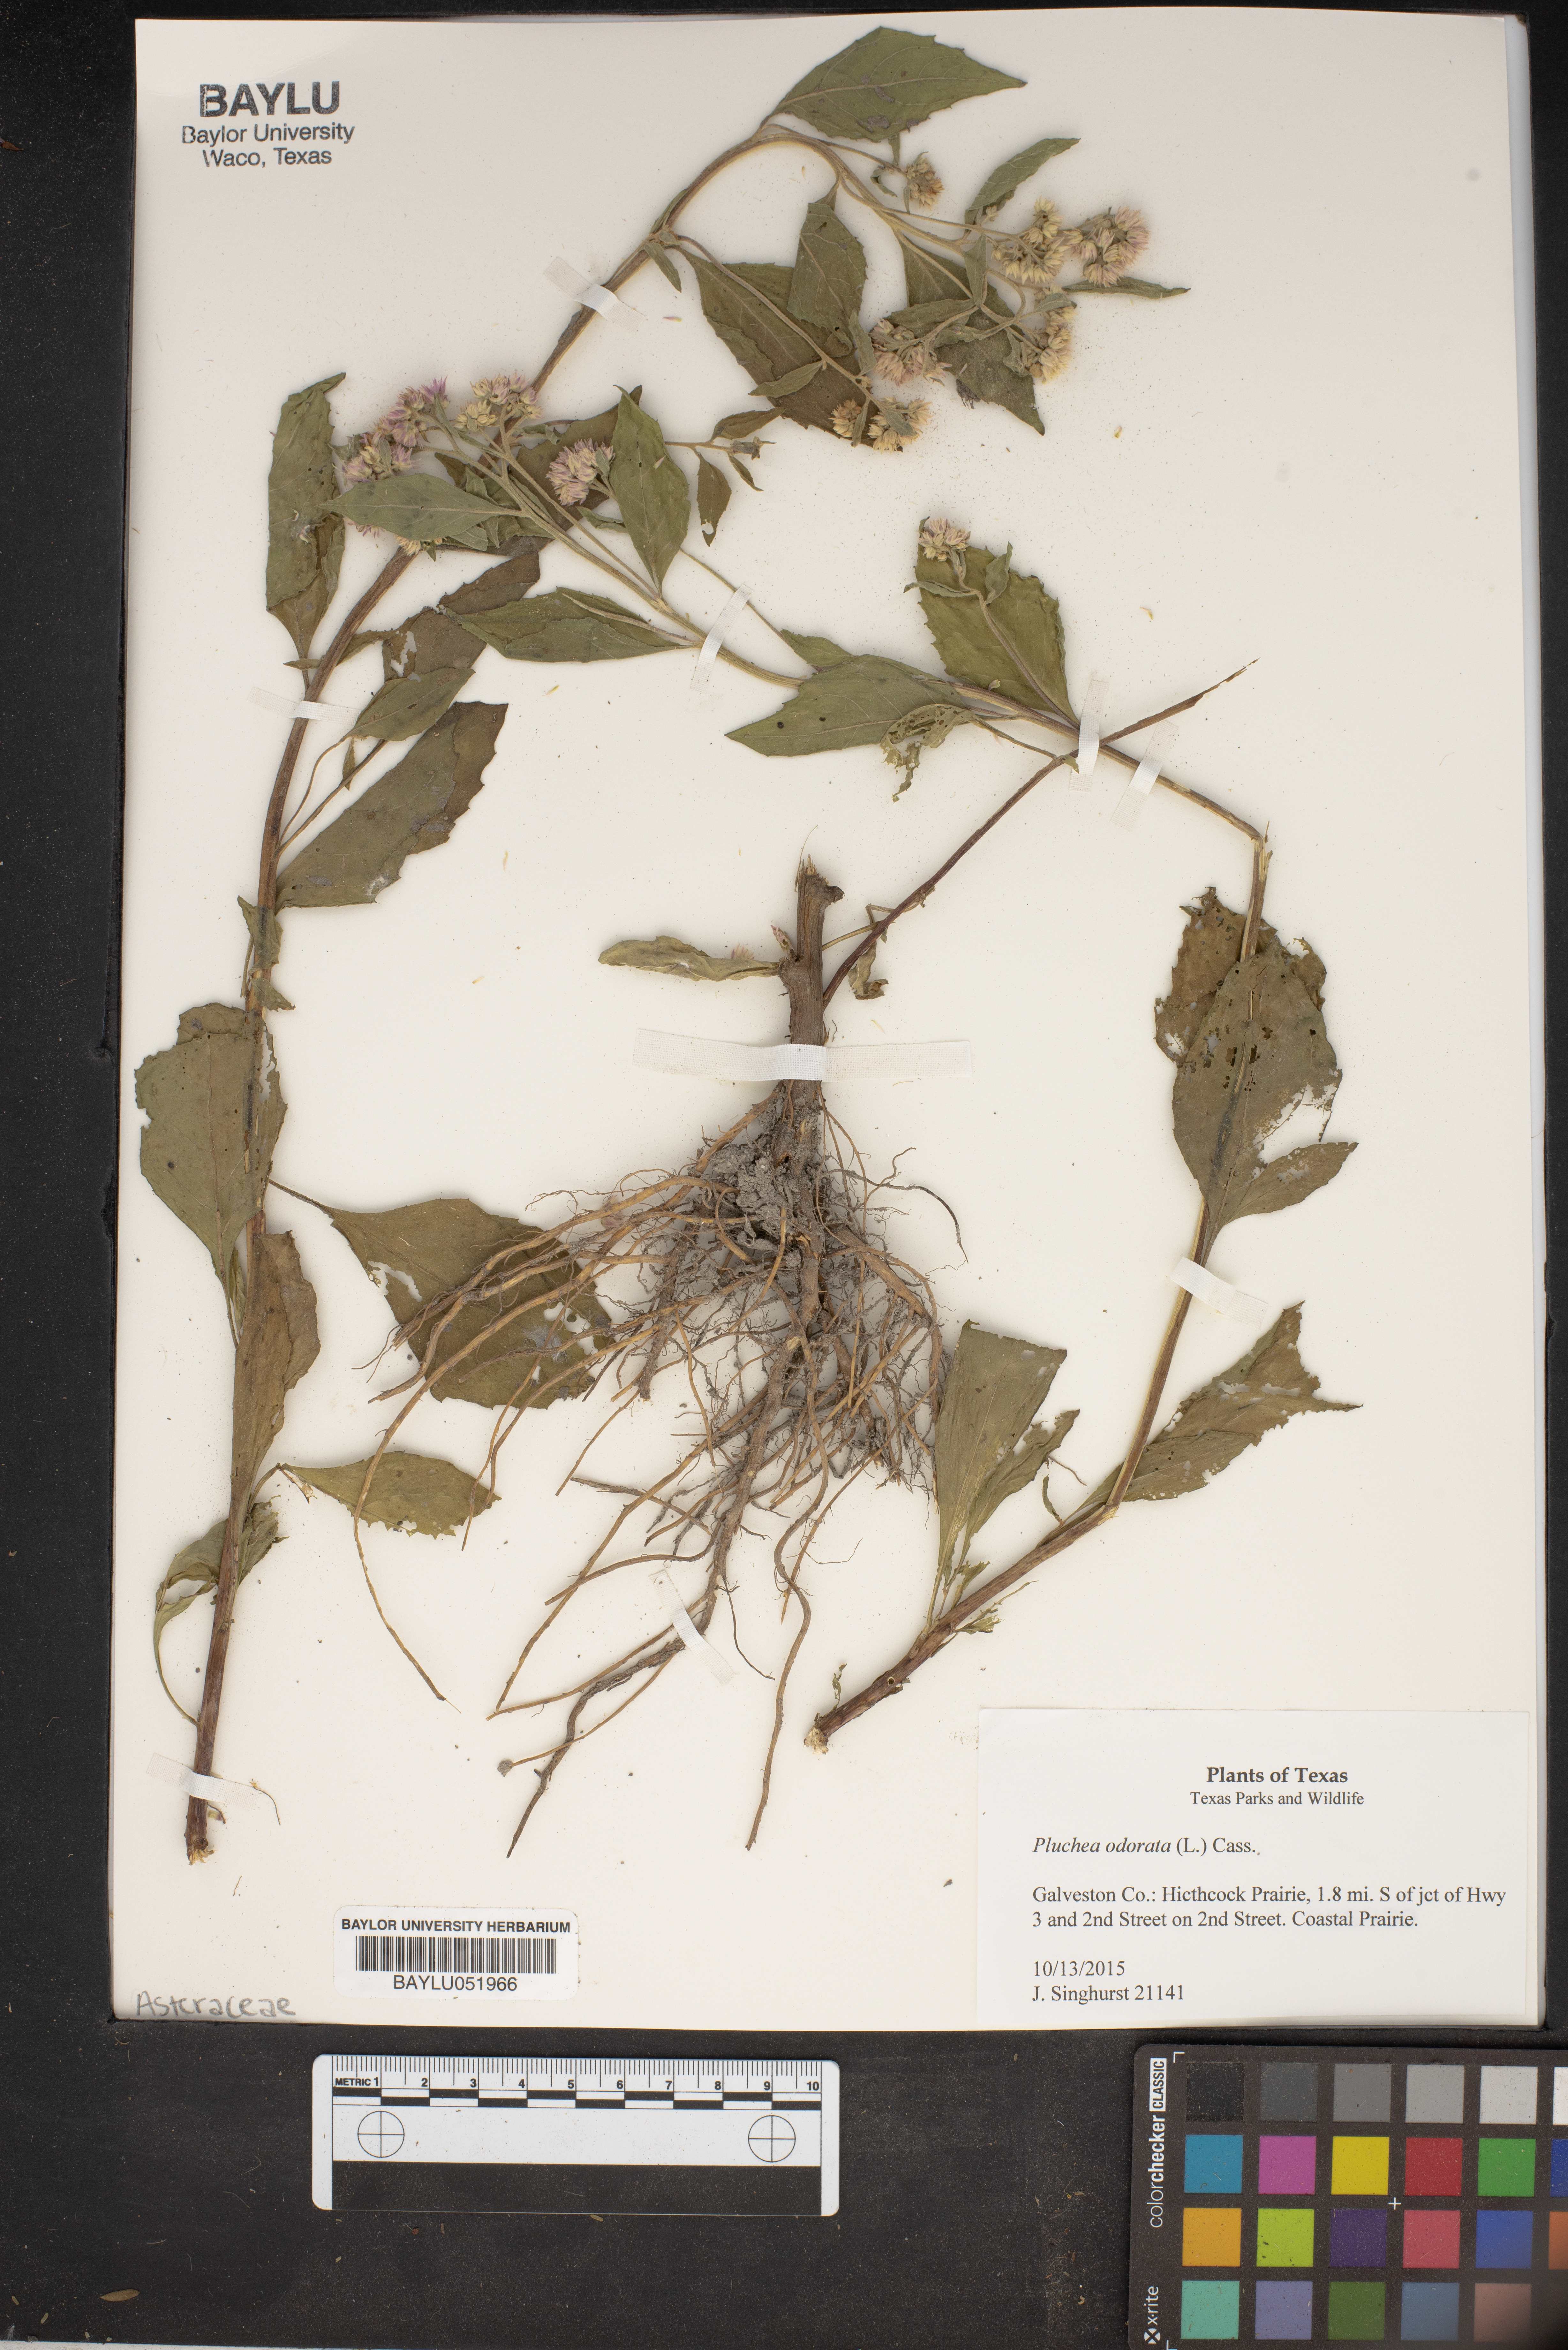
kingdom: Plantae
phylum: Tracheophyta
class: Magnoliopsida
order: Asterales
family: Asteraceae
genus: Pluchea
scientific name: Pluchea odorata
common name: Saltmarsh fleabane
